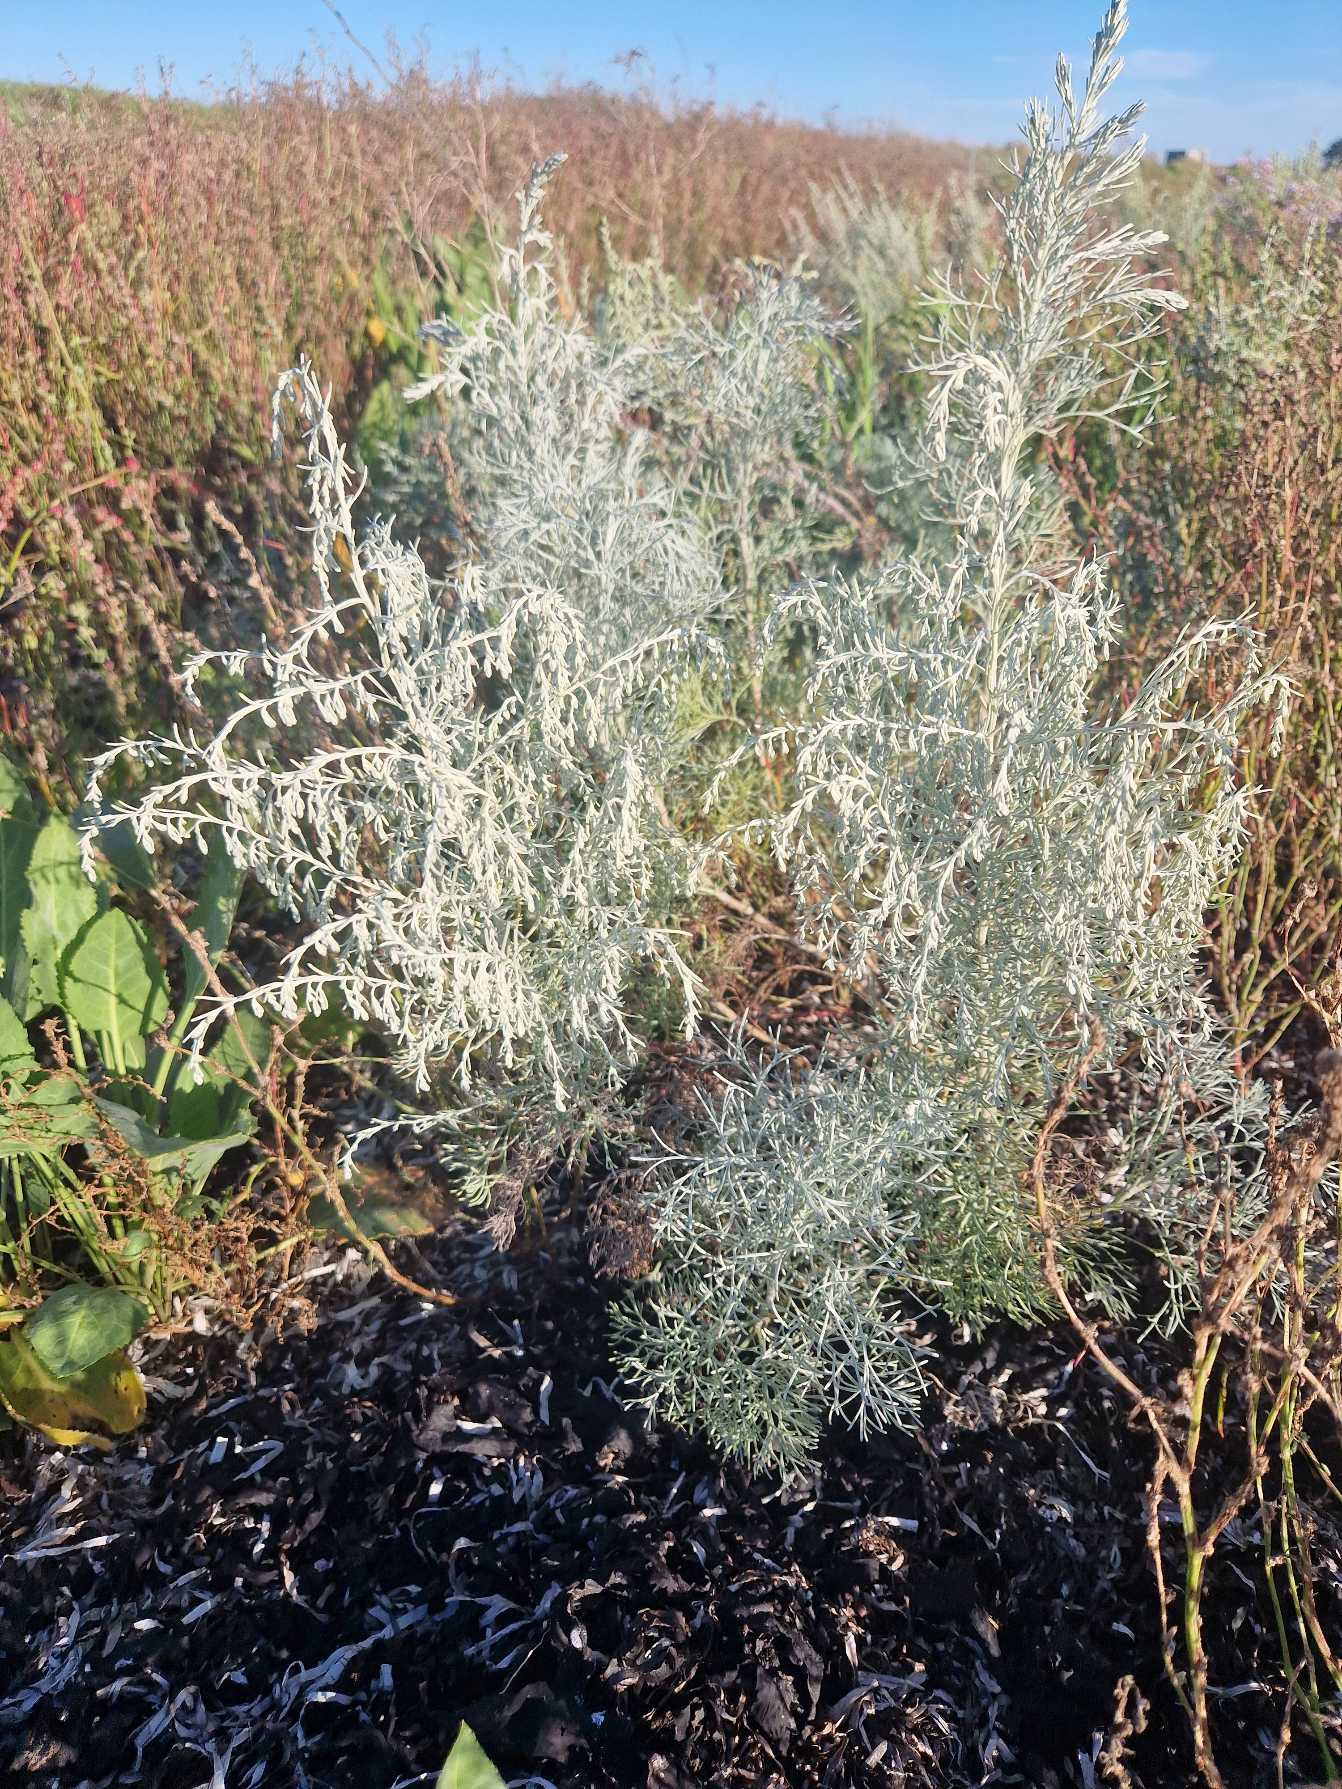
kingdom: Plantae
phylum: Tracheophyta
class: Magnoliopsida
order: Asterales
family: Asteraceae
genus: Artemisia
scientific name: Artemisia maritima
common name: Strandmalurt
